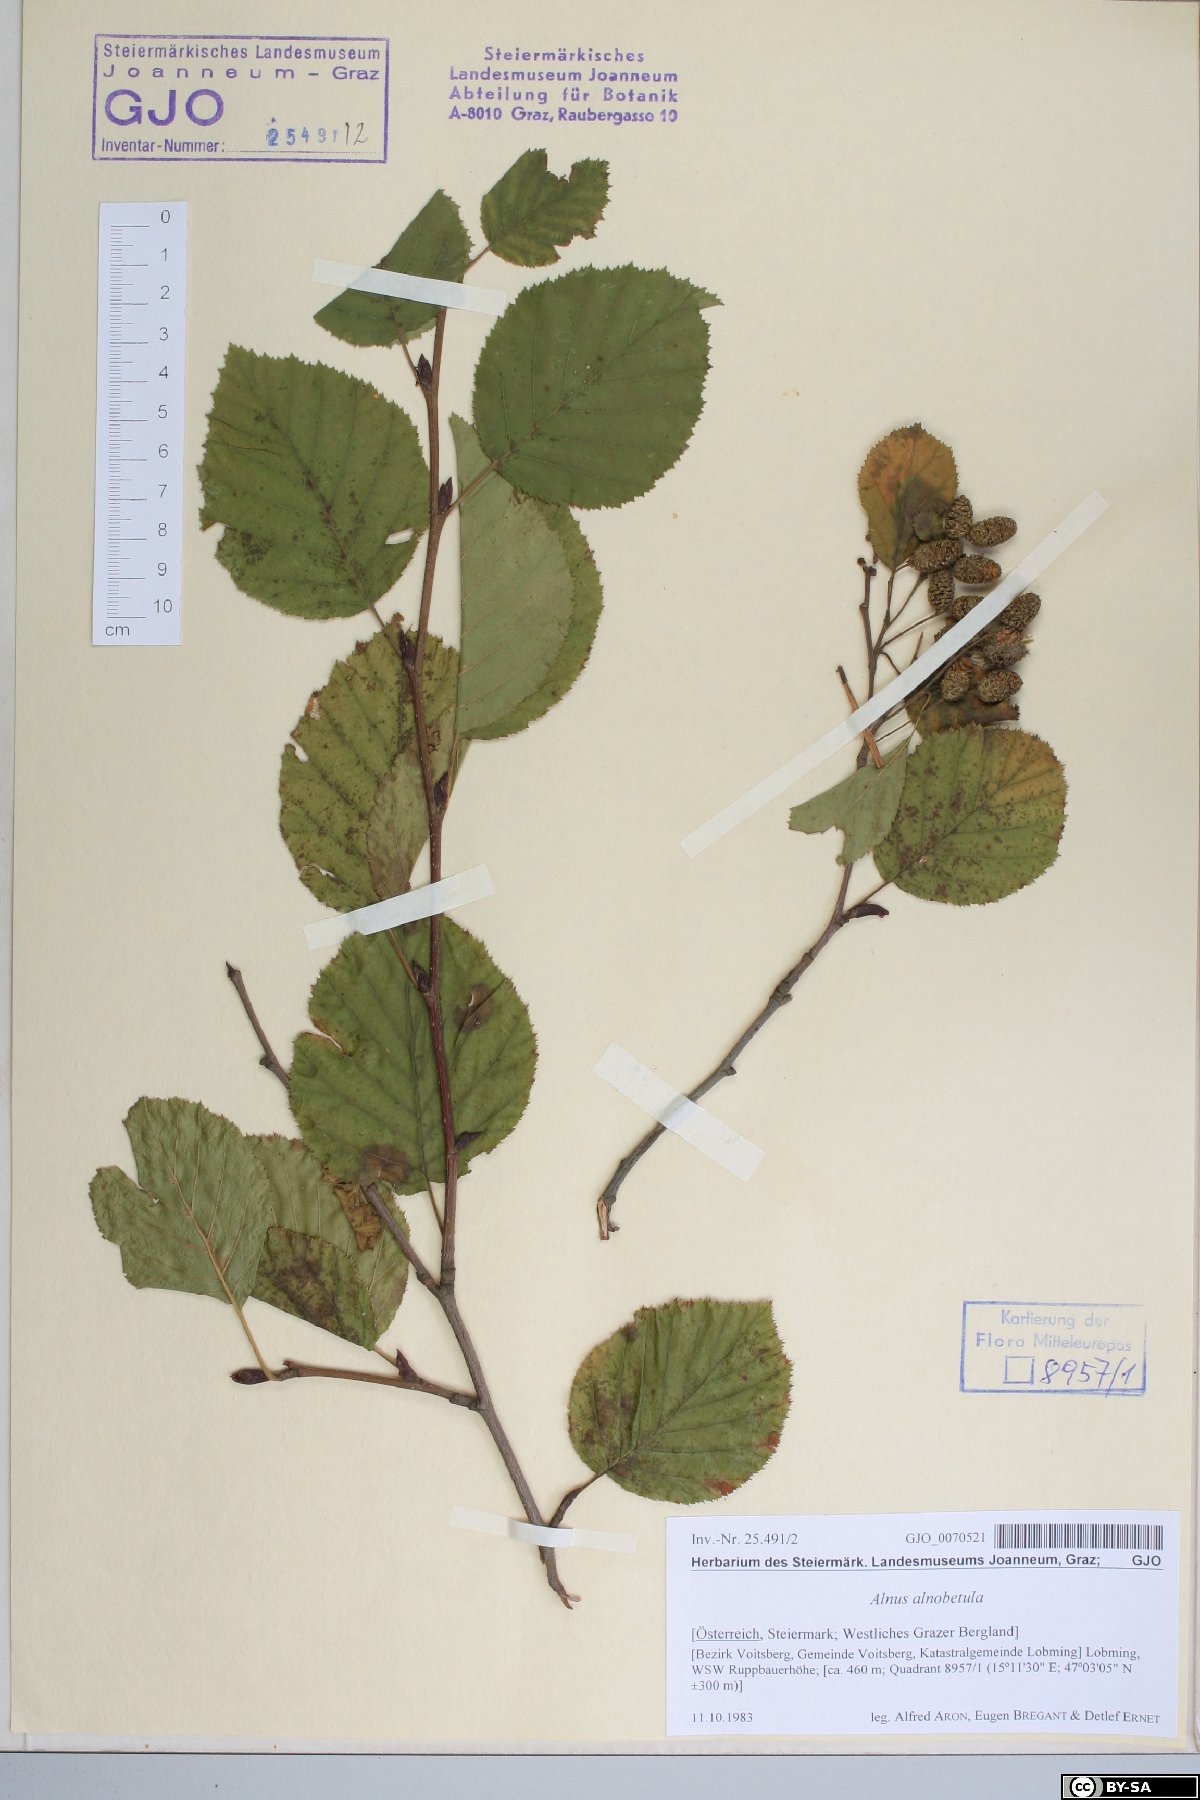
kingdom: Plantae
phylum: Tracheophyta
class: Magnoliopsida
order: Fagales
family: Betulaceae
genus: Alnus
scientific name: Alnus alnobetula
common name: Green alder
